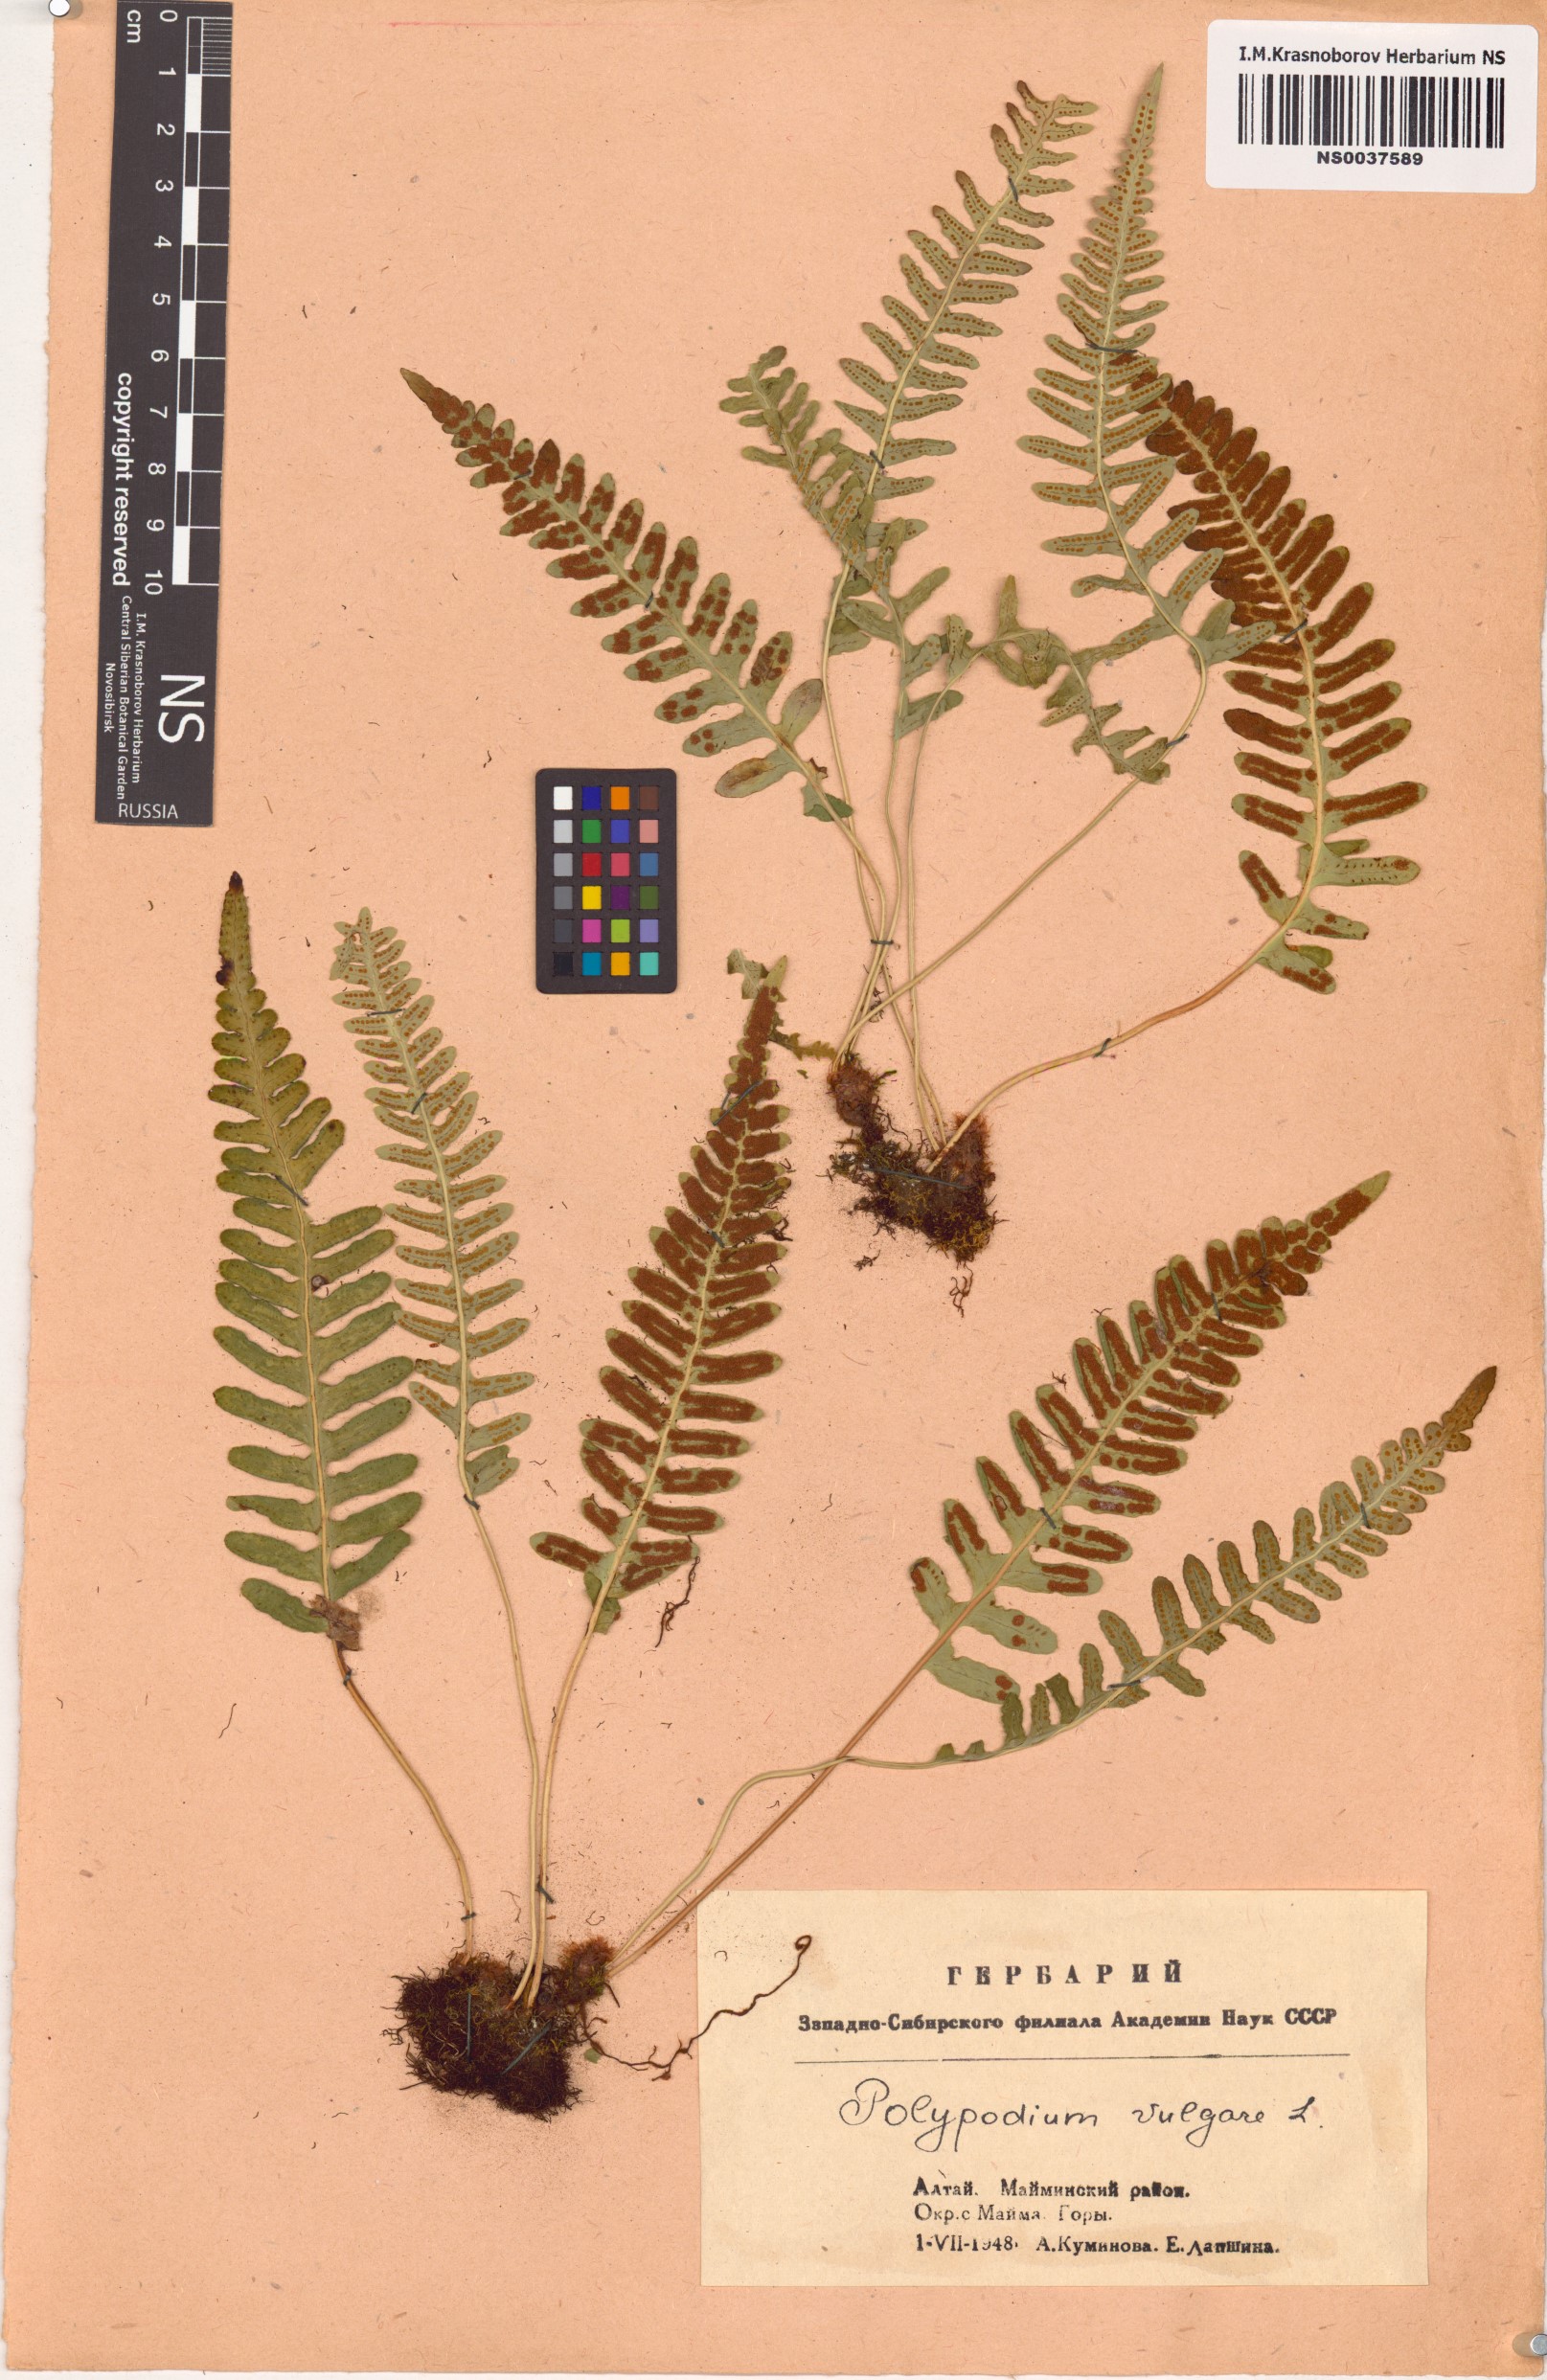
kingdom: Plantae
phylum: Tracheophyta
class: Polypodiopsida
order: Polypodiales
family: Polypodiaceae
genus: Polypodium
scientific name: Polypodium vulgare
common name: Common polypody
